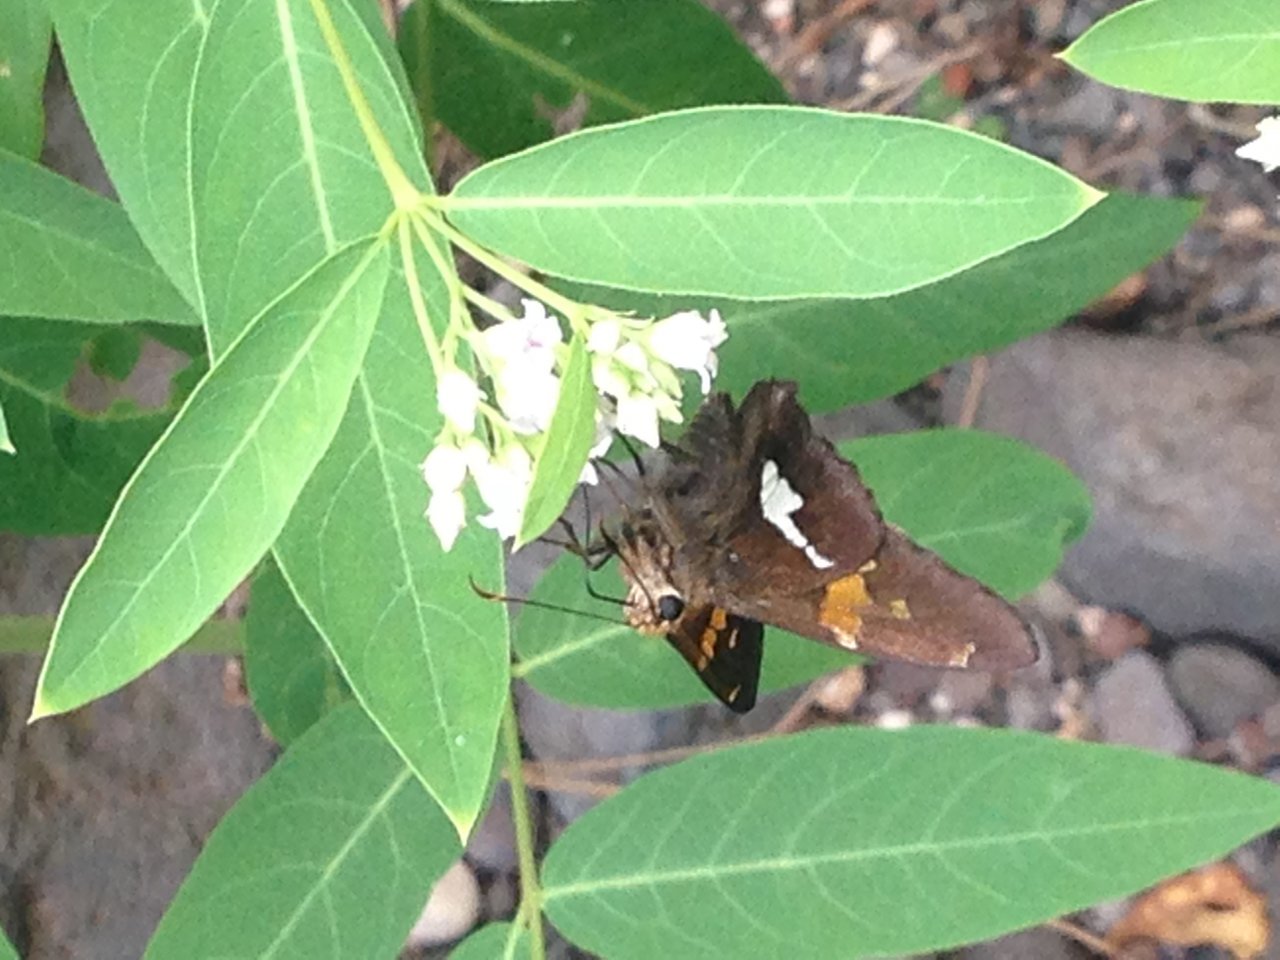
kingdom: Animalia
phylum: Arthropoda
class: Insecta
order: Lepidoptera
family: Hesperiidae
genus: Epargyreus
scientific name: Epargyreus clarus
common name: Silver-spotted Skipper
